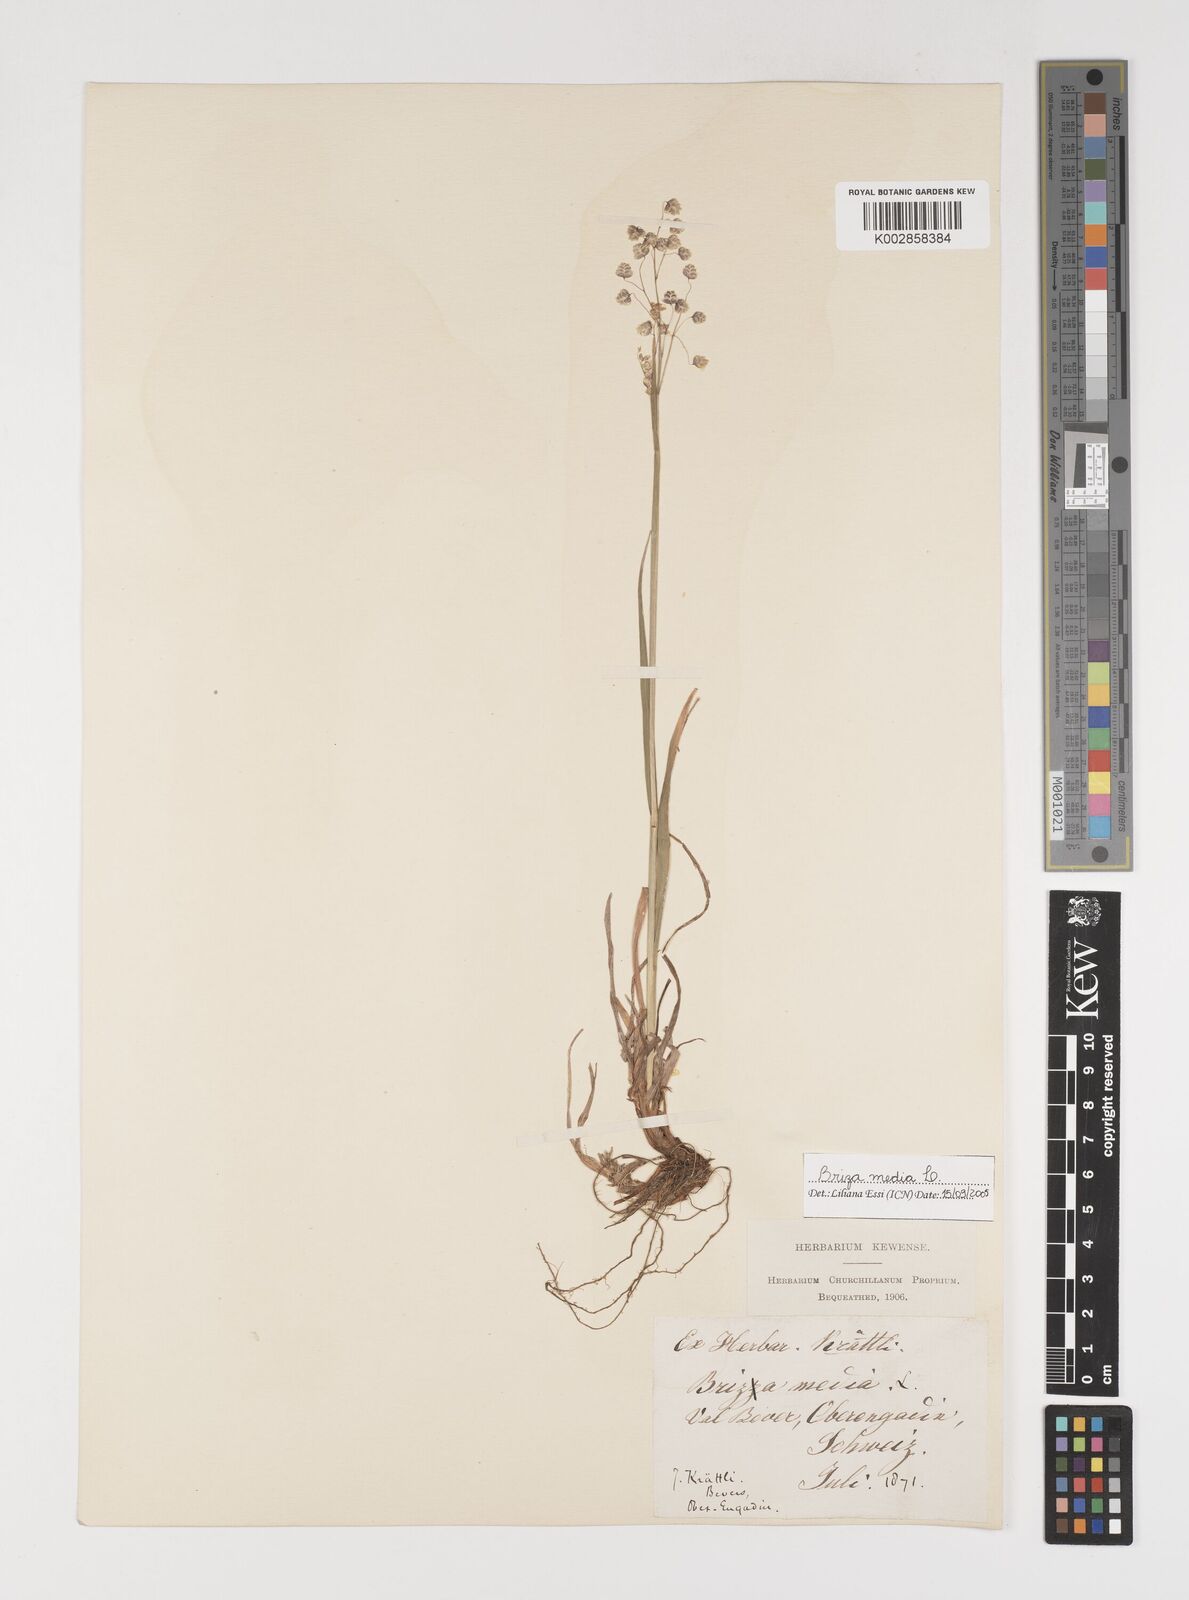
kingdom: Plantae
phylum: Tracheophyta
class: Liliopsida
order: Poales
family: Poaceae
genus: Briza
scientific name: Briza media
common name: Quaking grass
